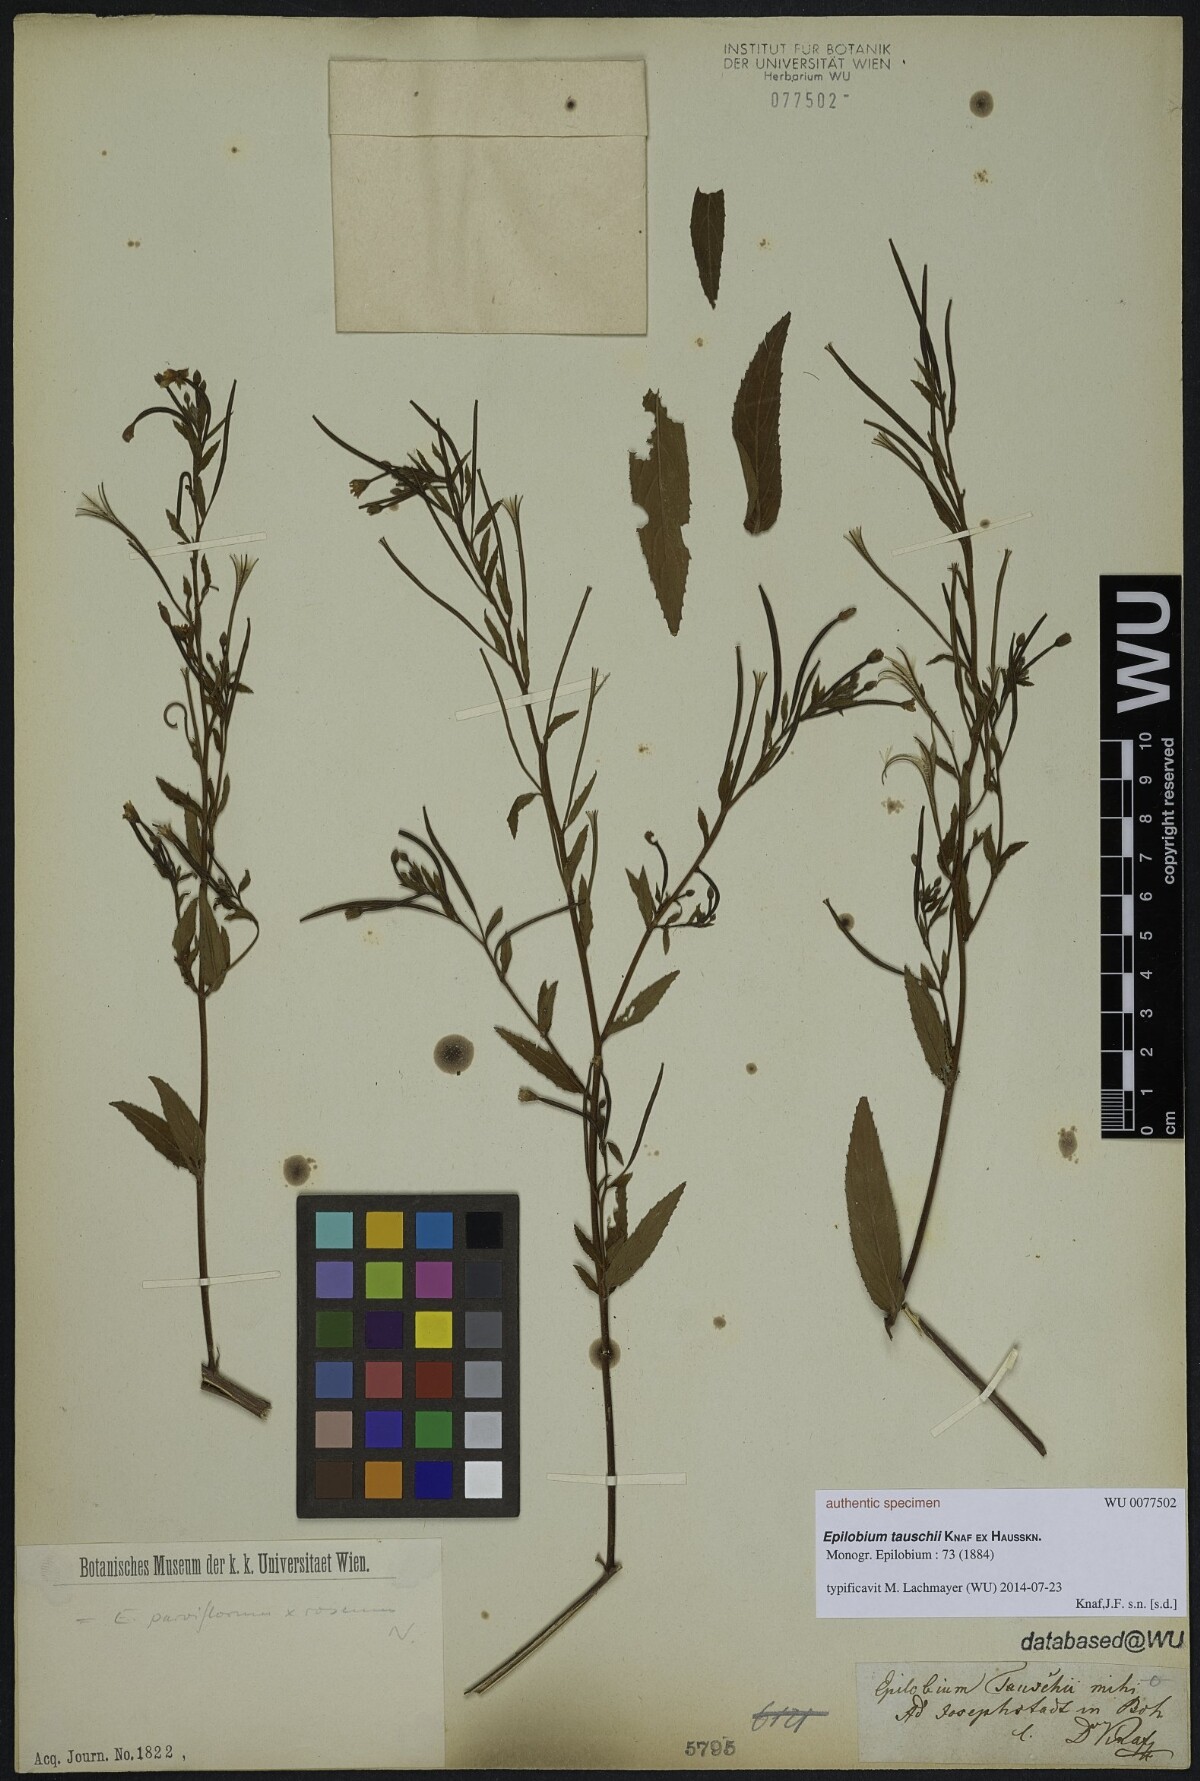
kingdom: Plantae
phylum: Tracheophyta
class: Magnoliopsida
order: Myrtales
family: Onagraceae
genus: Epilobium
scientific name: Epilobium parviflorum
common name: Hoary willowherb
